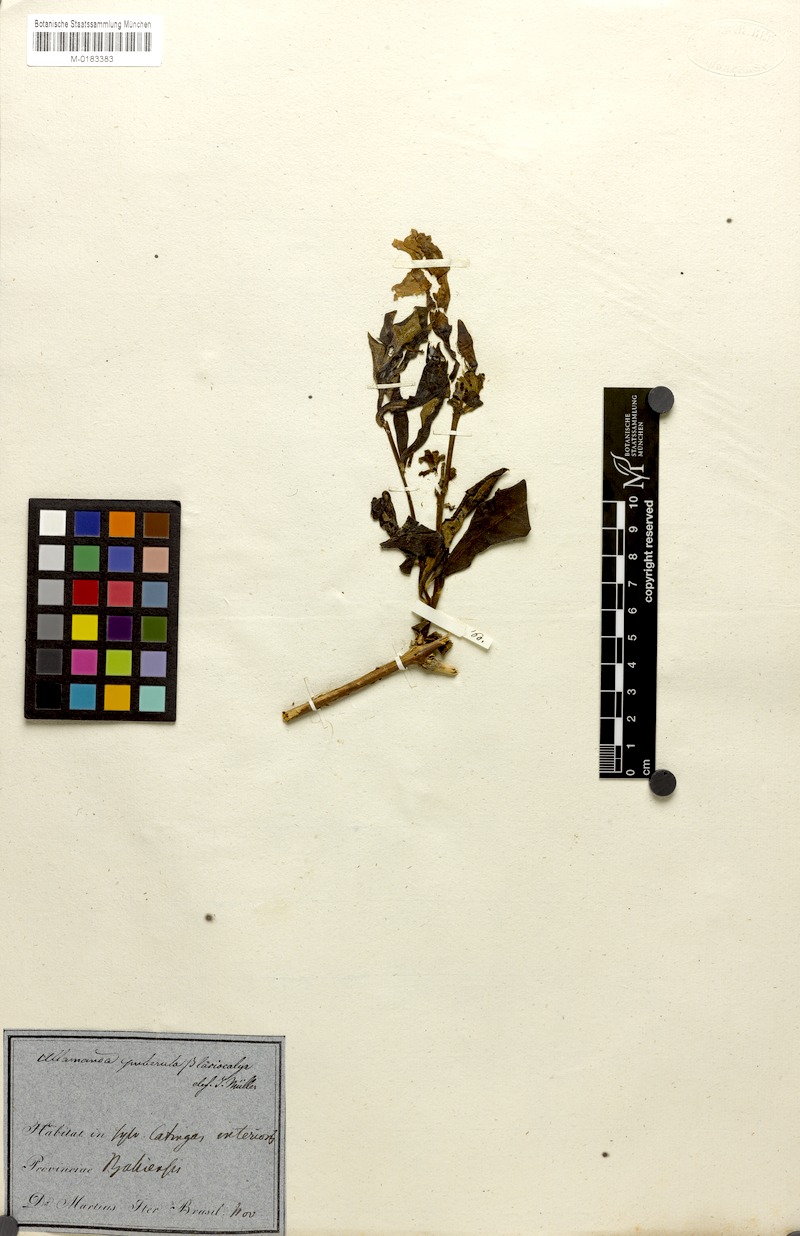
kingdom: Plantae
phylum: Tracheophyta
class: Magnoliopsida
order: Gentianales
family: Apocynaceae
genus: Allamanda
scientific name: Allamanda puberula
